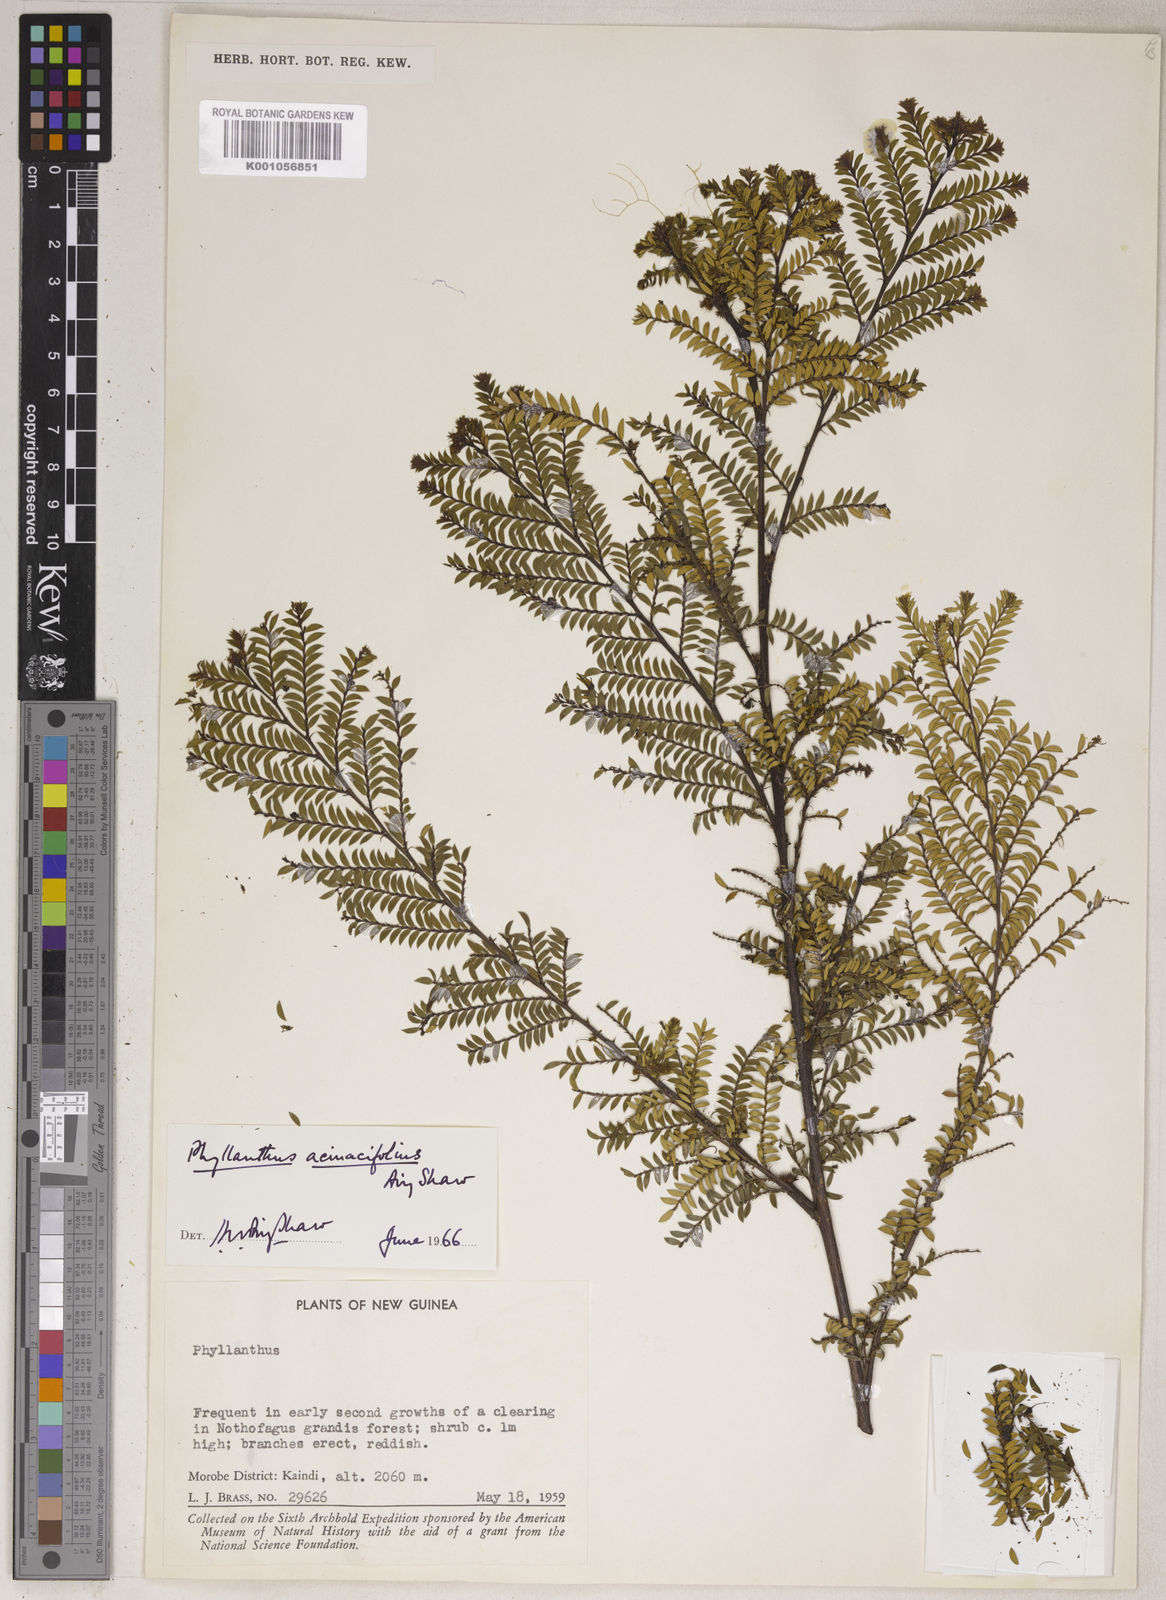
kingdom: Plantae
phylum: Tracheophyta
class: Magnoliopsida
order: Malpighiales
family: Phyllanthaceae
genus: Phyllanthus
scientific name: Phyllanthus acinacifolius
